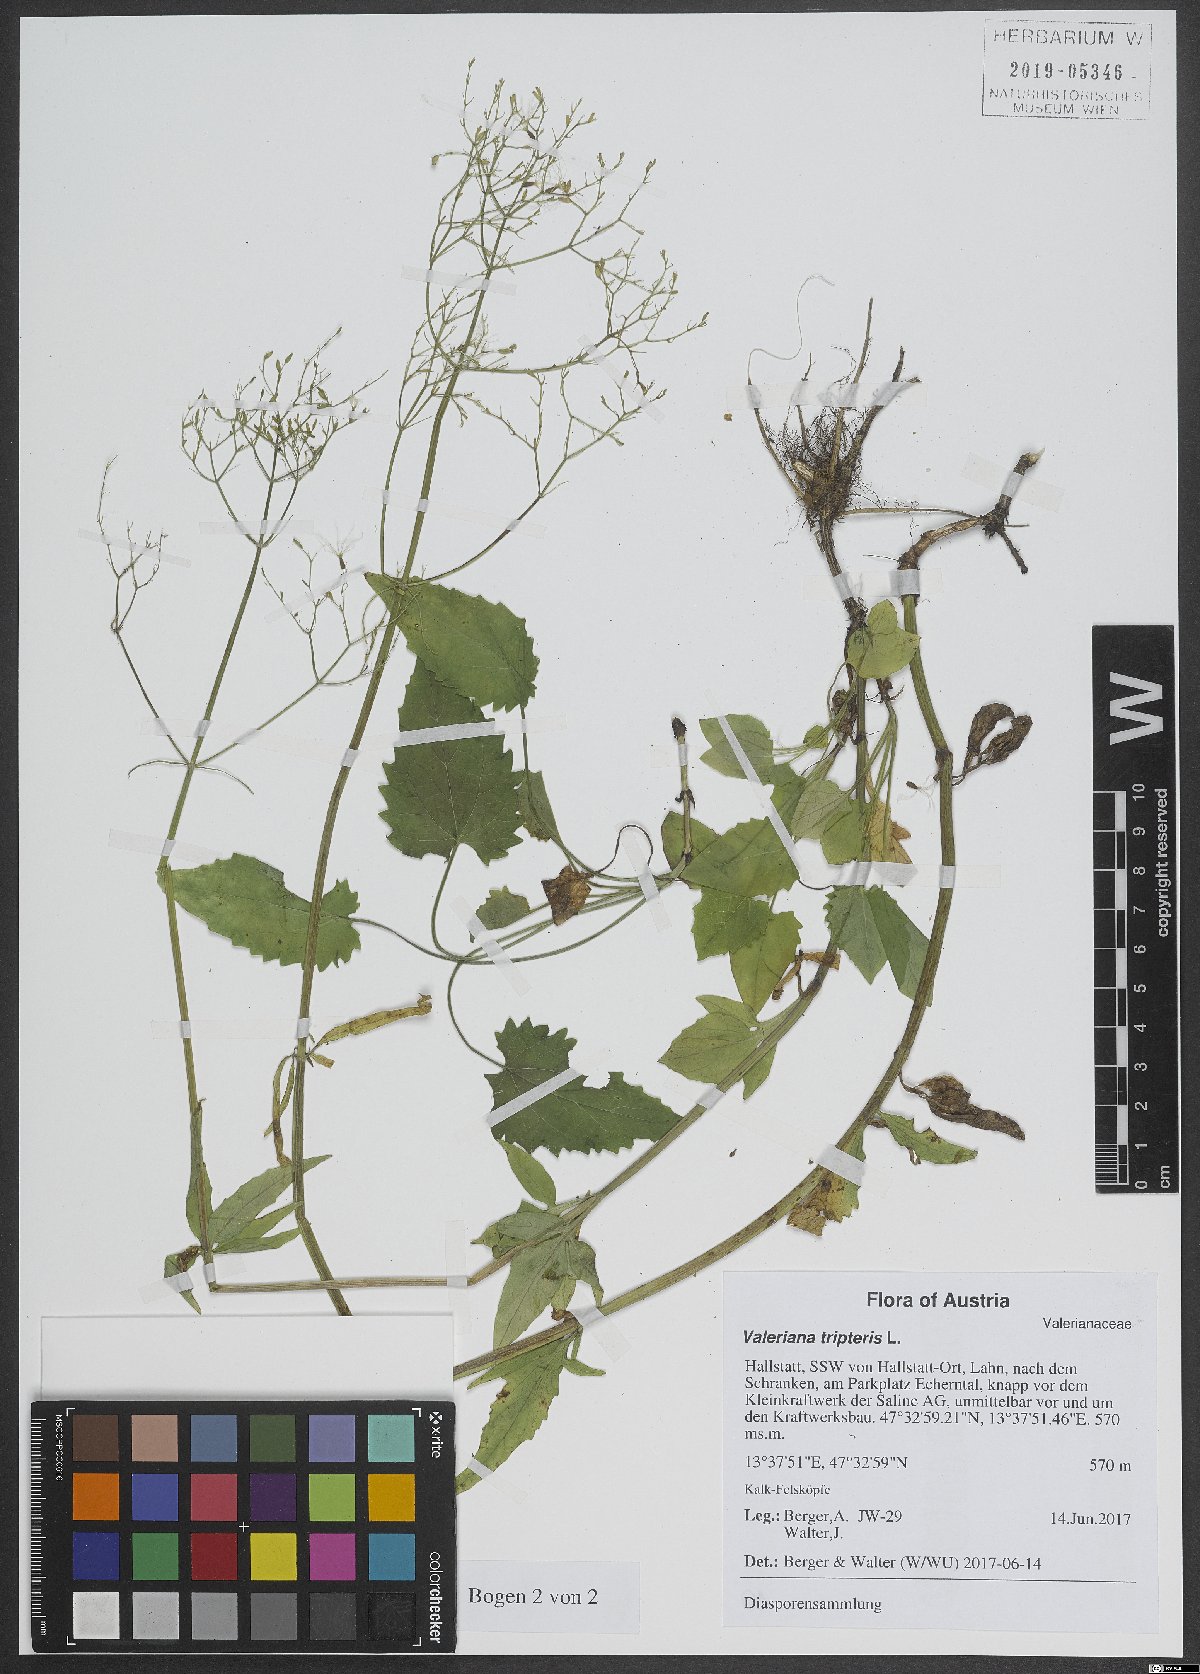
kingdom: Plantae
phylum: Tracheophyta
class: Magnoliopsida
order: Dipsacales
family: Caprifoliaceae
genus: Valeriana
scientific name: Valeriana tripteris
